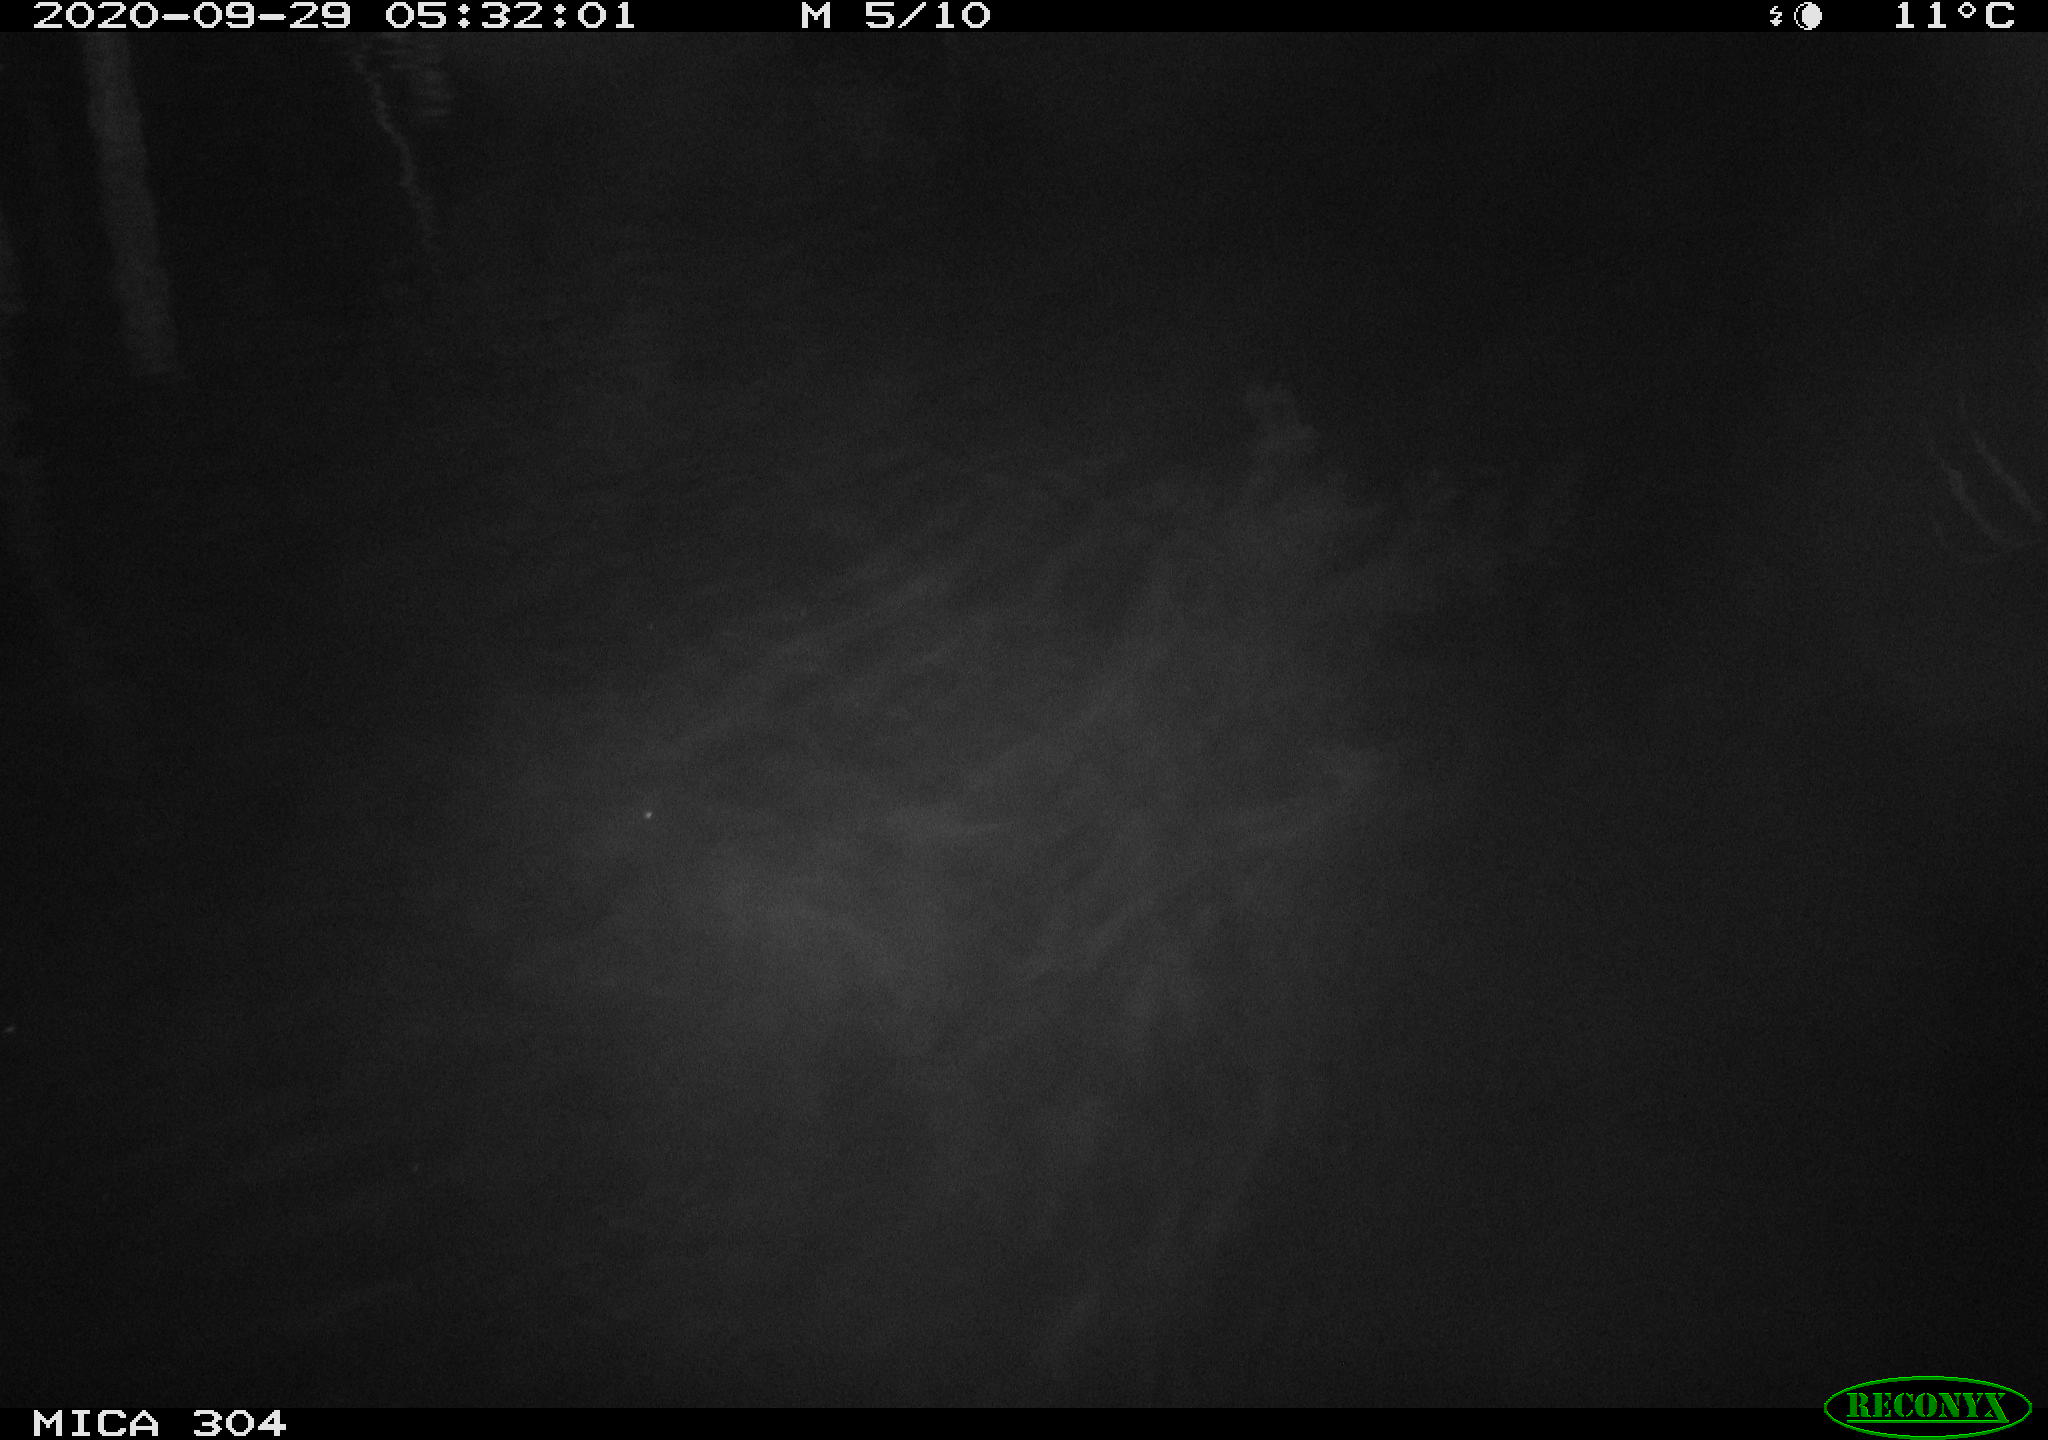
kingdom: Animalia
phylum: Chordata
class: Mammalia
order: Rodentia
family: Muridae
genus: Rattus
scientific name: Rattus norvegicus
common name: Brown rat
